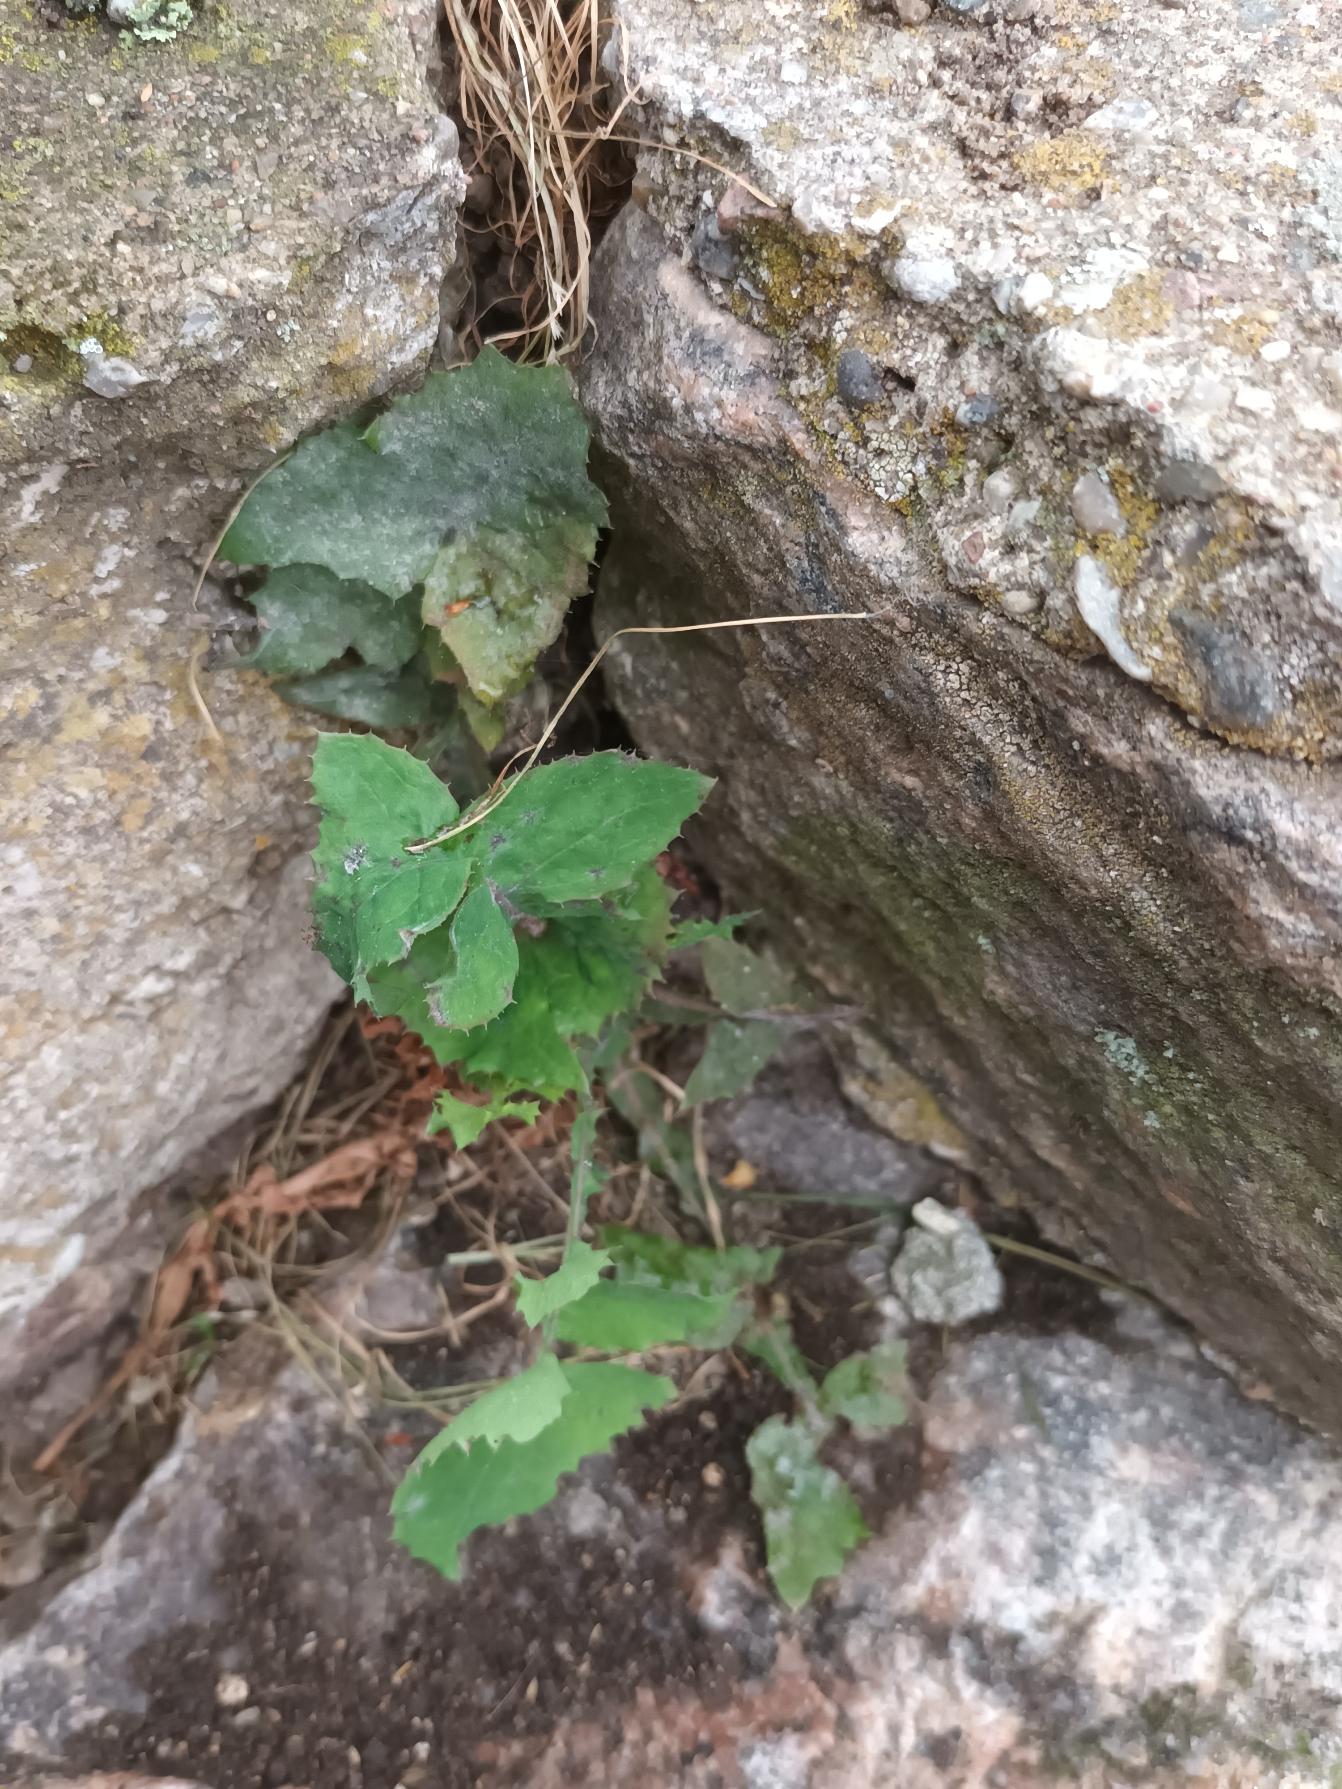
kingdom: Plantae
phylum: Tracheophyta
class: Magnoliopsida
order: Asterales
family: Asteraceae
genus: Sonchus
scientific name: Sonchus oleraceus
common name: Almindelig svinemælk
